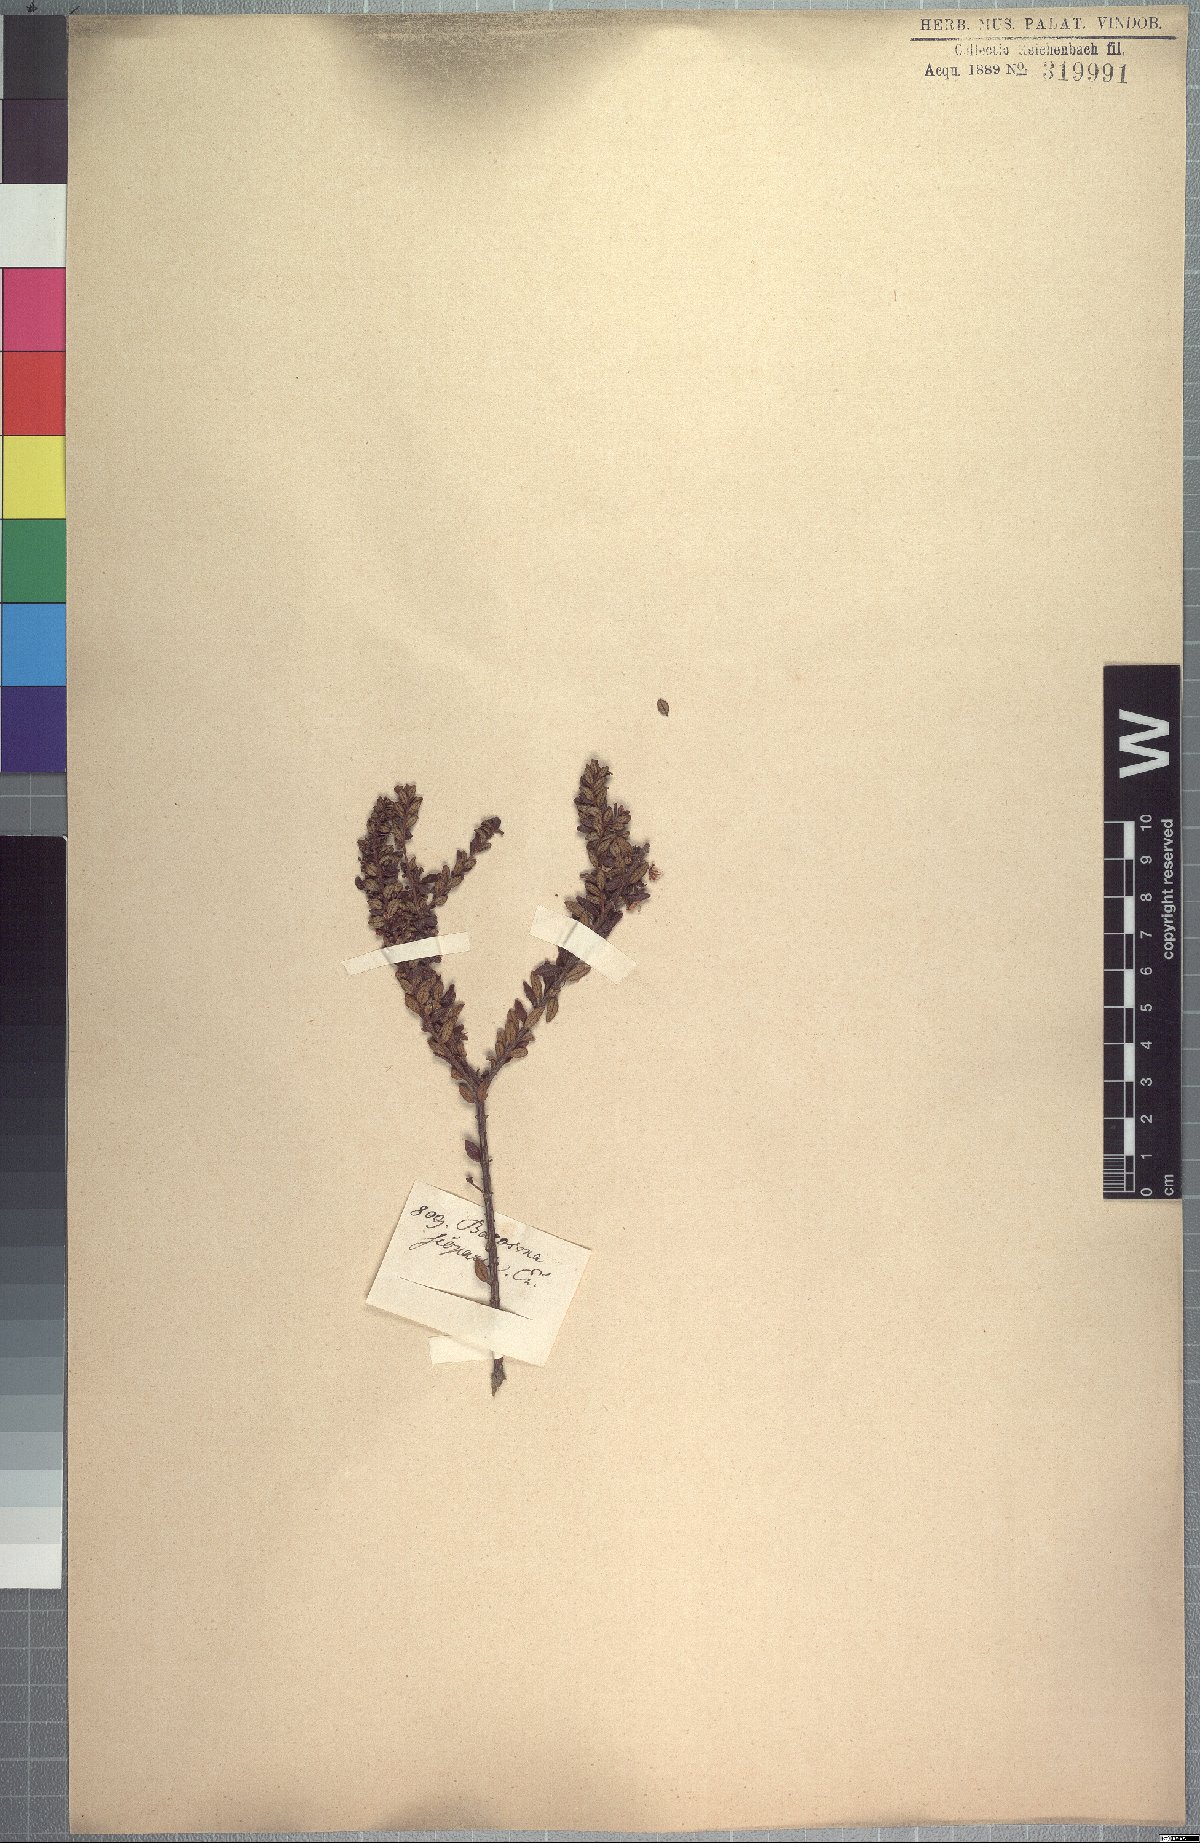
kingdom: Plantae
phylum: Tracheophyta
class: Magnoliopsida
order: Sapindales
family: Rutaceae
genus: Agathosma
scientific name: Agathosma ovata
